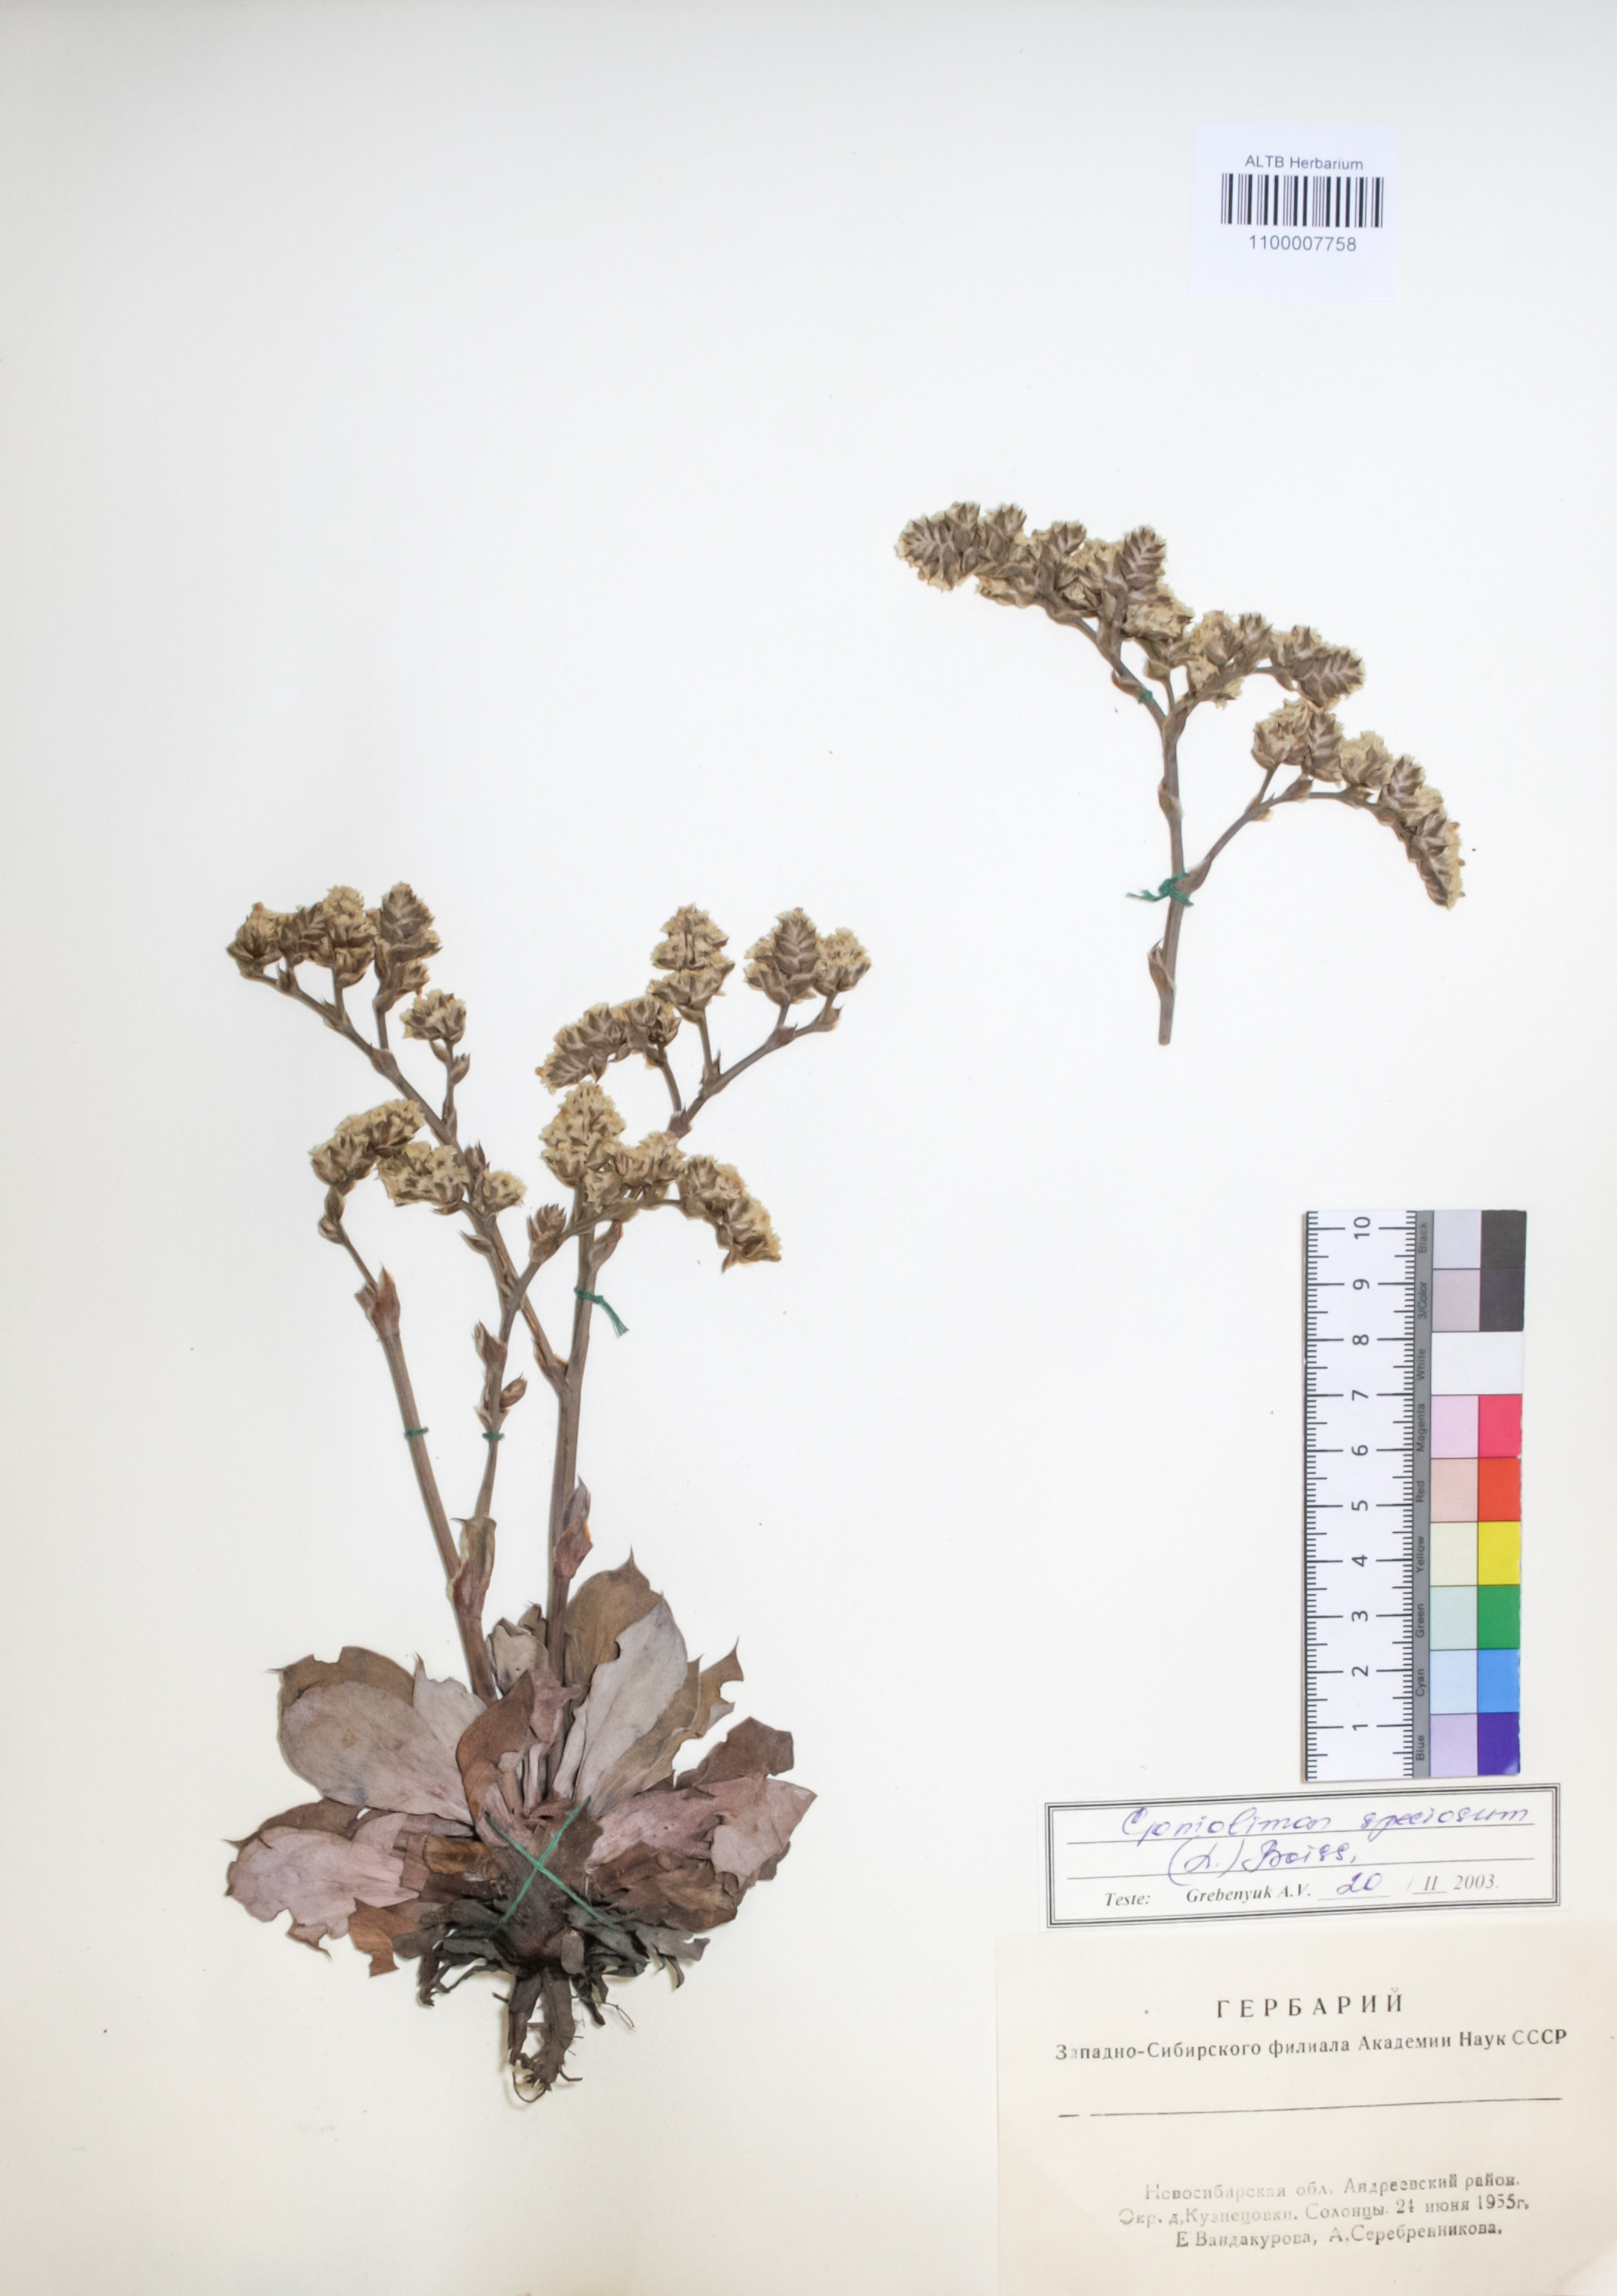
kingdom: Plantae
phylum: Tracheophyta
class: Magnoliopsida
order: Caryophyllales
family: Plumbaginaceae
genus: Goniolimon
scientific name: Goniolimon speciosum
